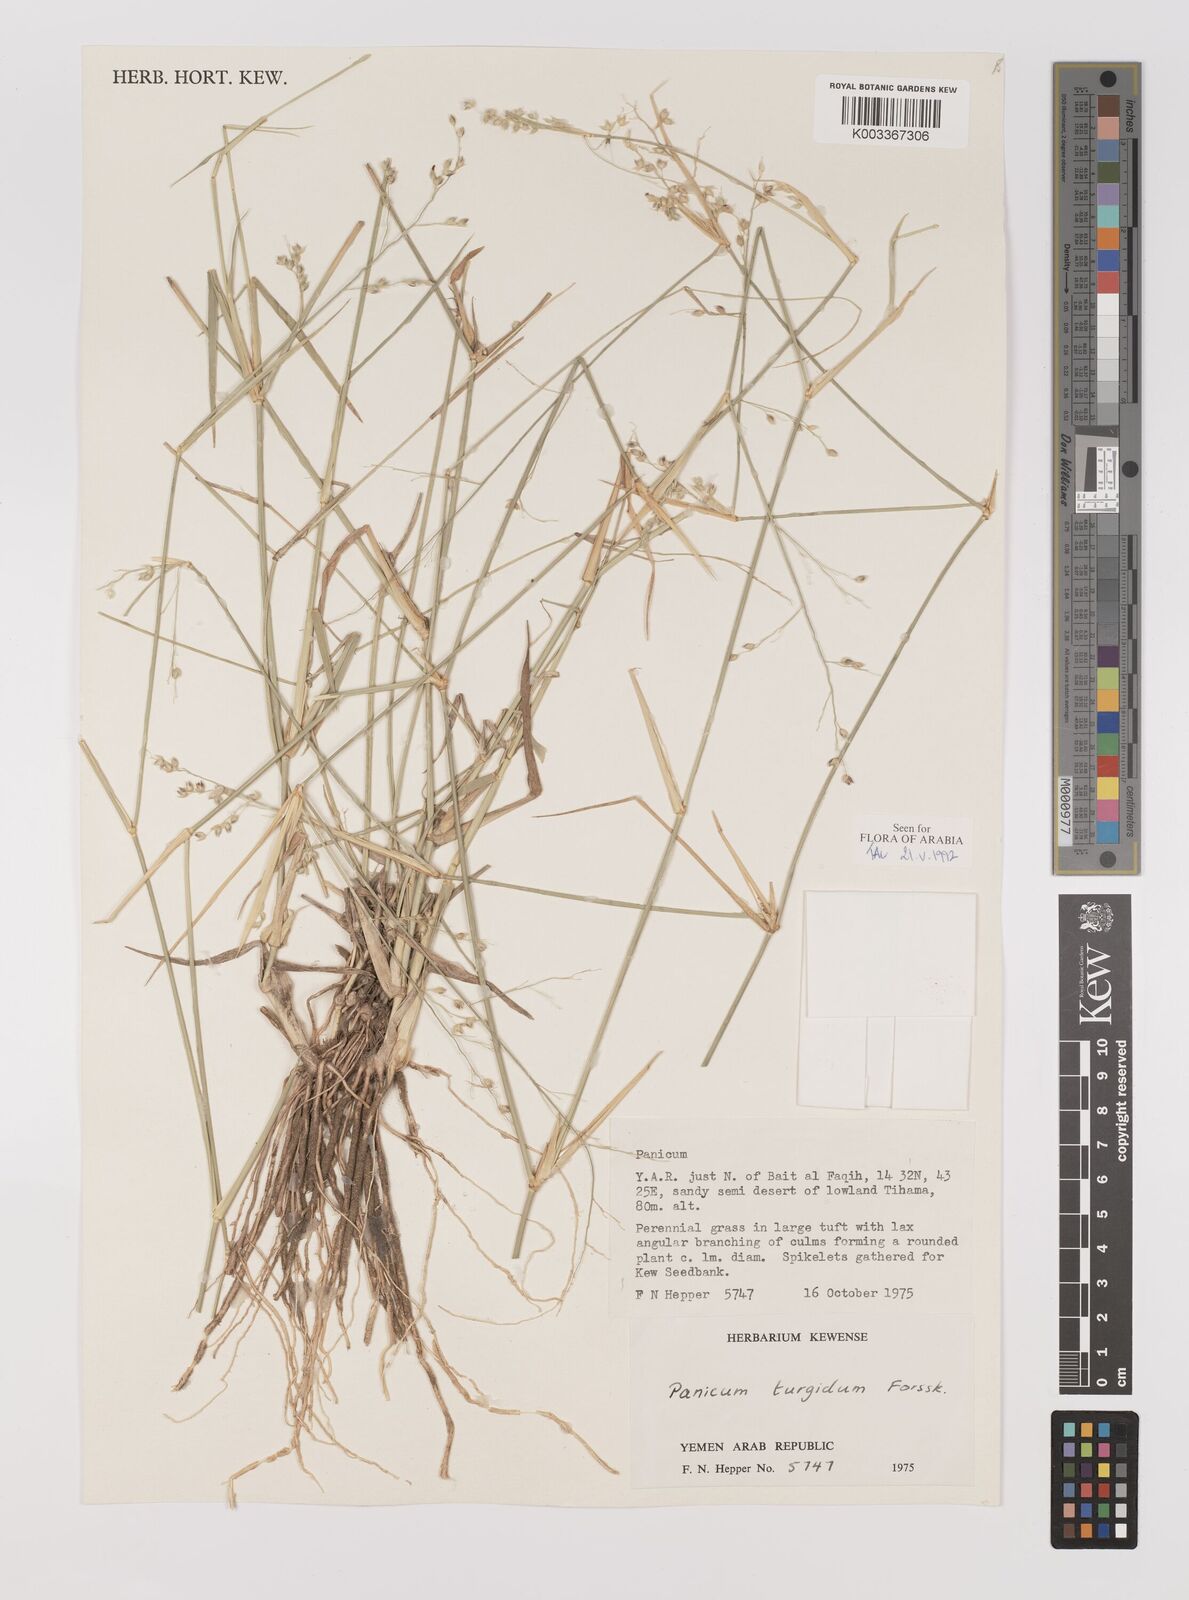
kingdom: Plantae
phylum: Tracheophyta
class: Liliopsida
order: Poales
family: Poaceae
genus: Panicum
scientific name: Panicum turgidum
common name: Desert grass
